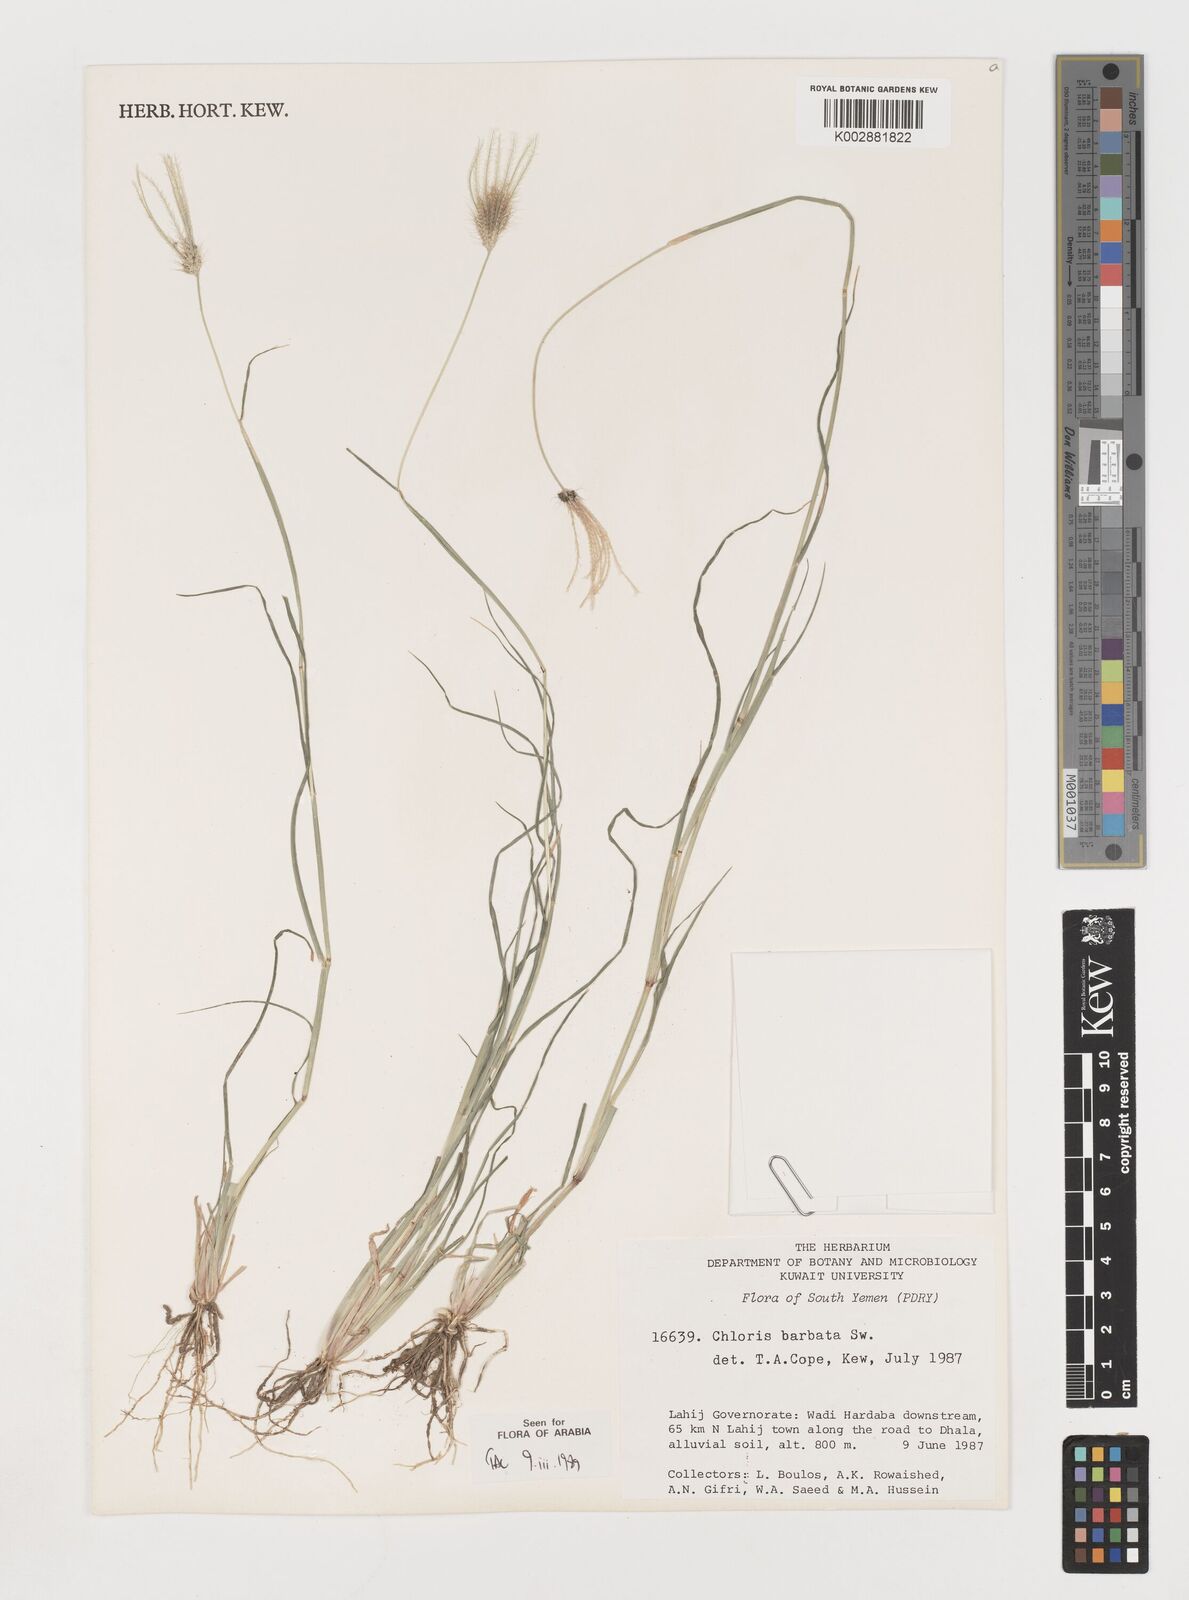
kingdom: Plantae
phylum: Tracheophyta
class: Liliopsida
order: Poales
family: Poaceae
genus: Chloris
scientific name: Chloris
